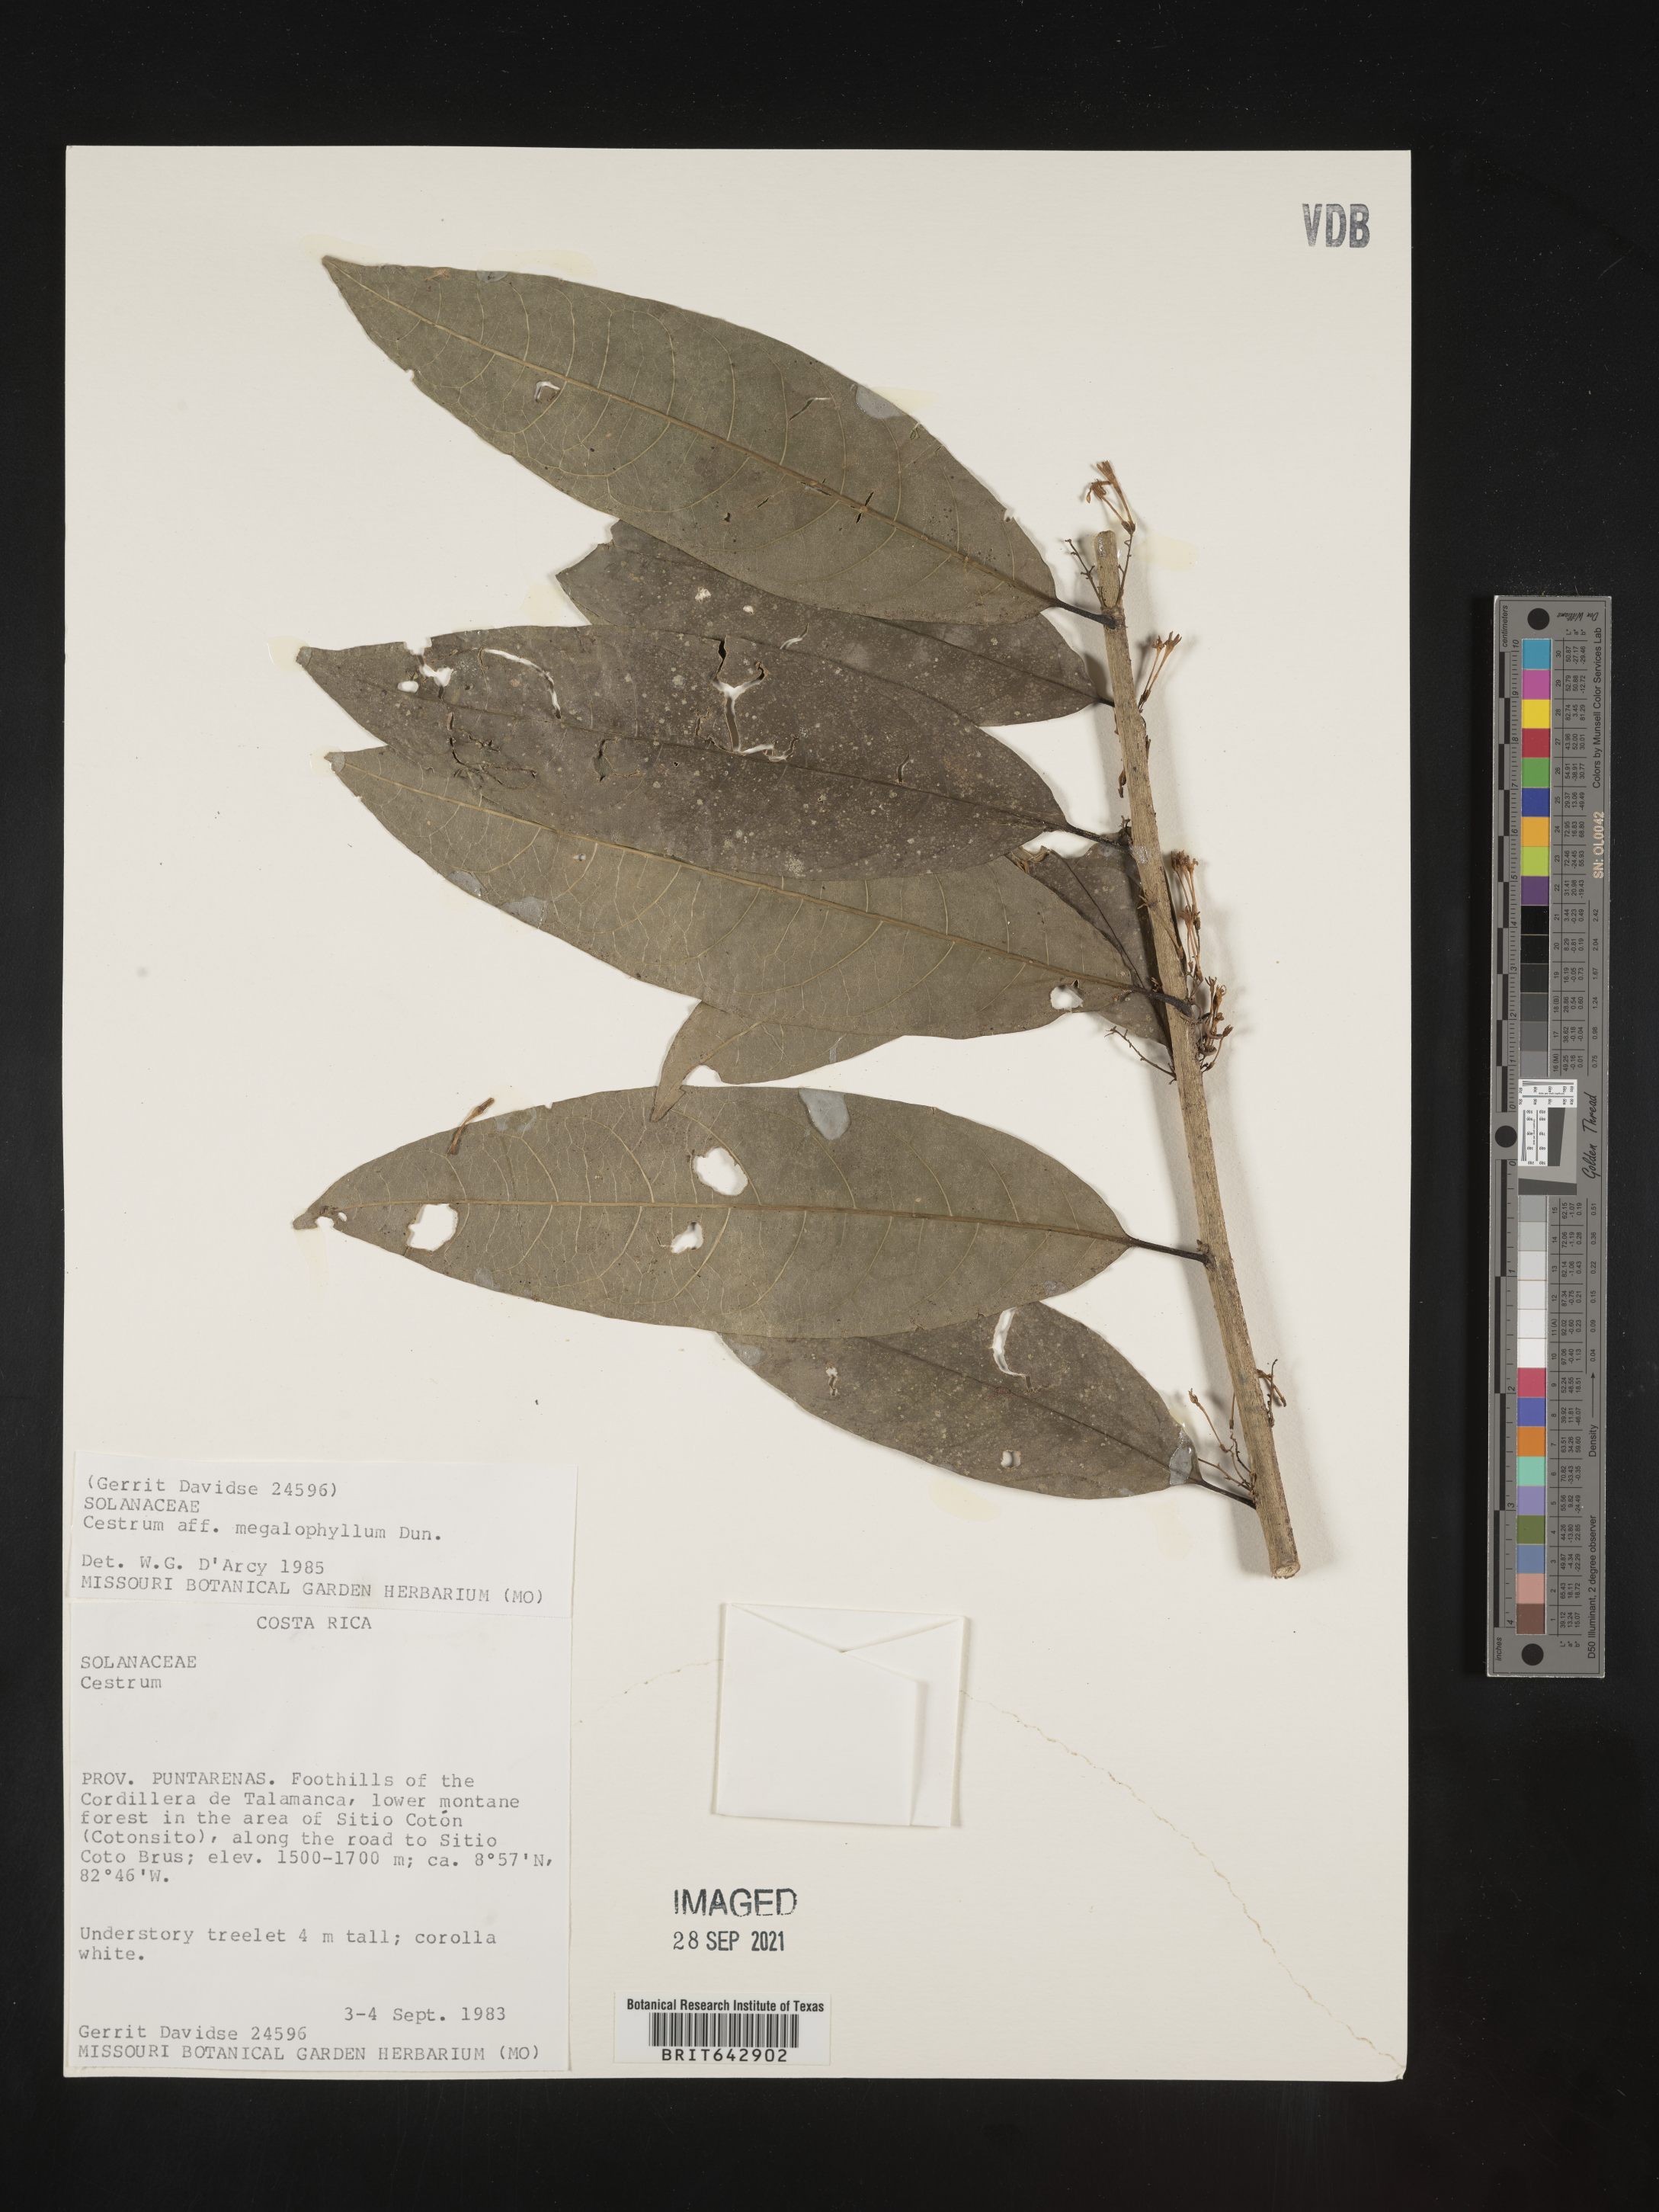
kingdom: Plantae
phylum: Tracheophyta
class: Magnoliopsida
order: Solanales
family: Solanaceae
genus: Cestrum
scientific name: Cestrum
